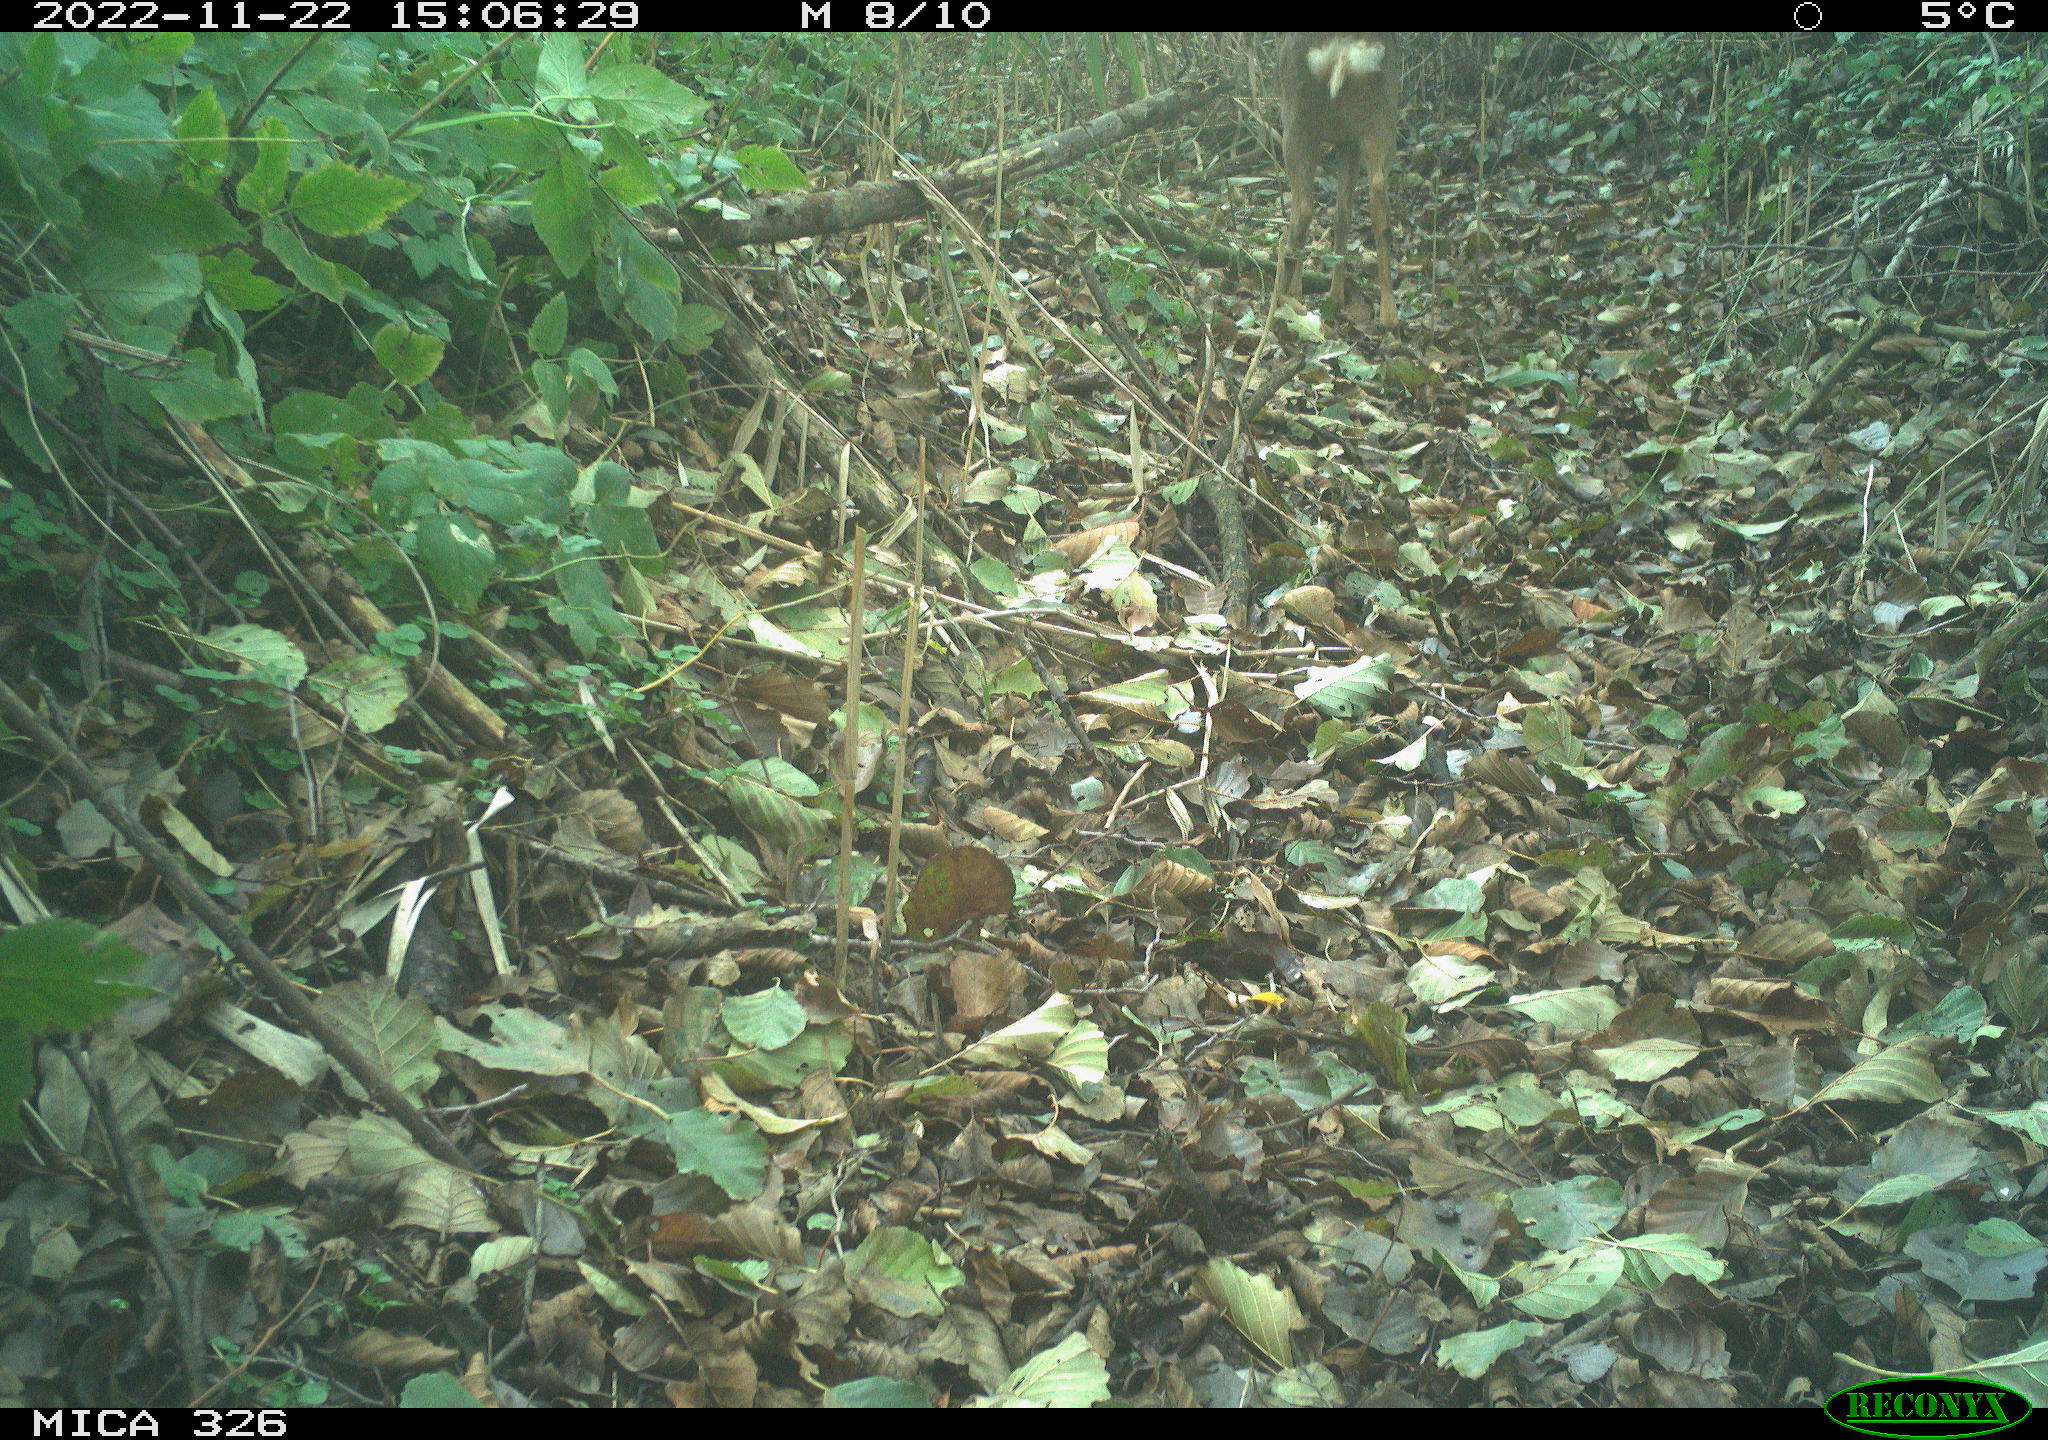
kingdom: Animalia
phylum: Chordata
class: Mammalia
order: Artiodactyla
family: Cervidae
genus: Capreolus
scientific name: Capreolus capreolus
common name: Western roe deer
